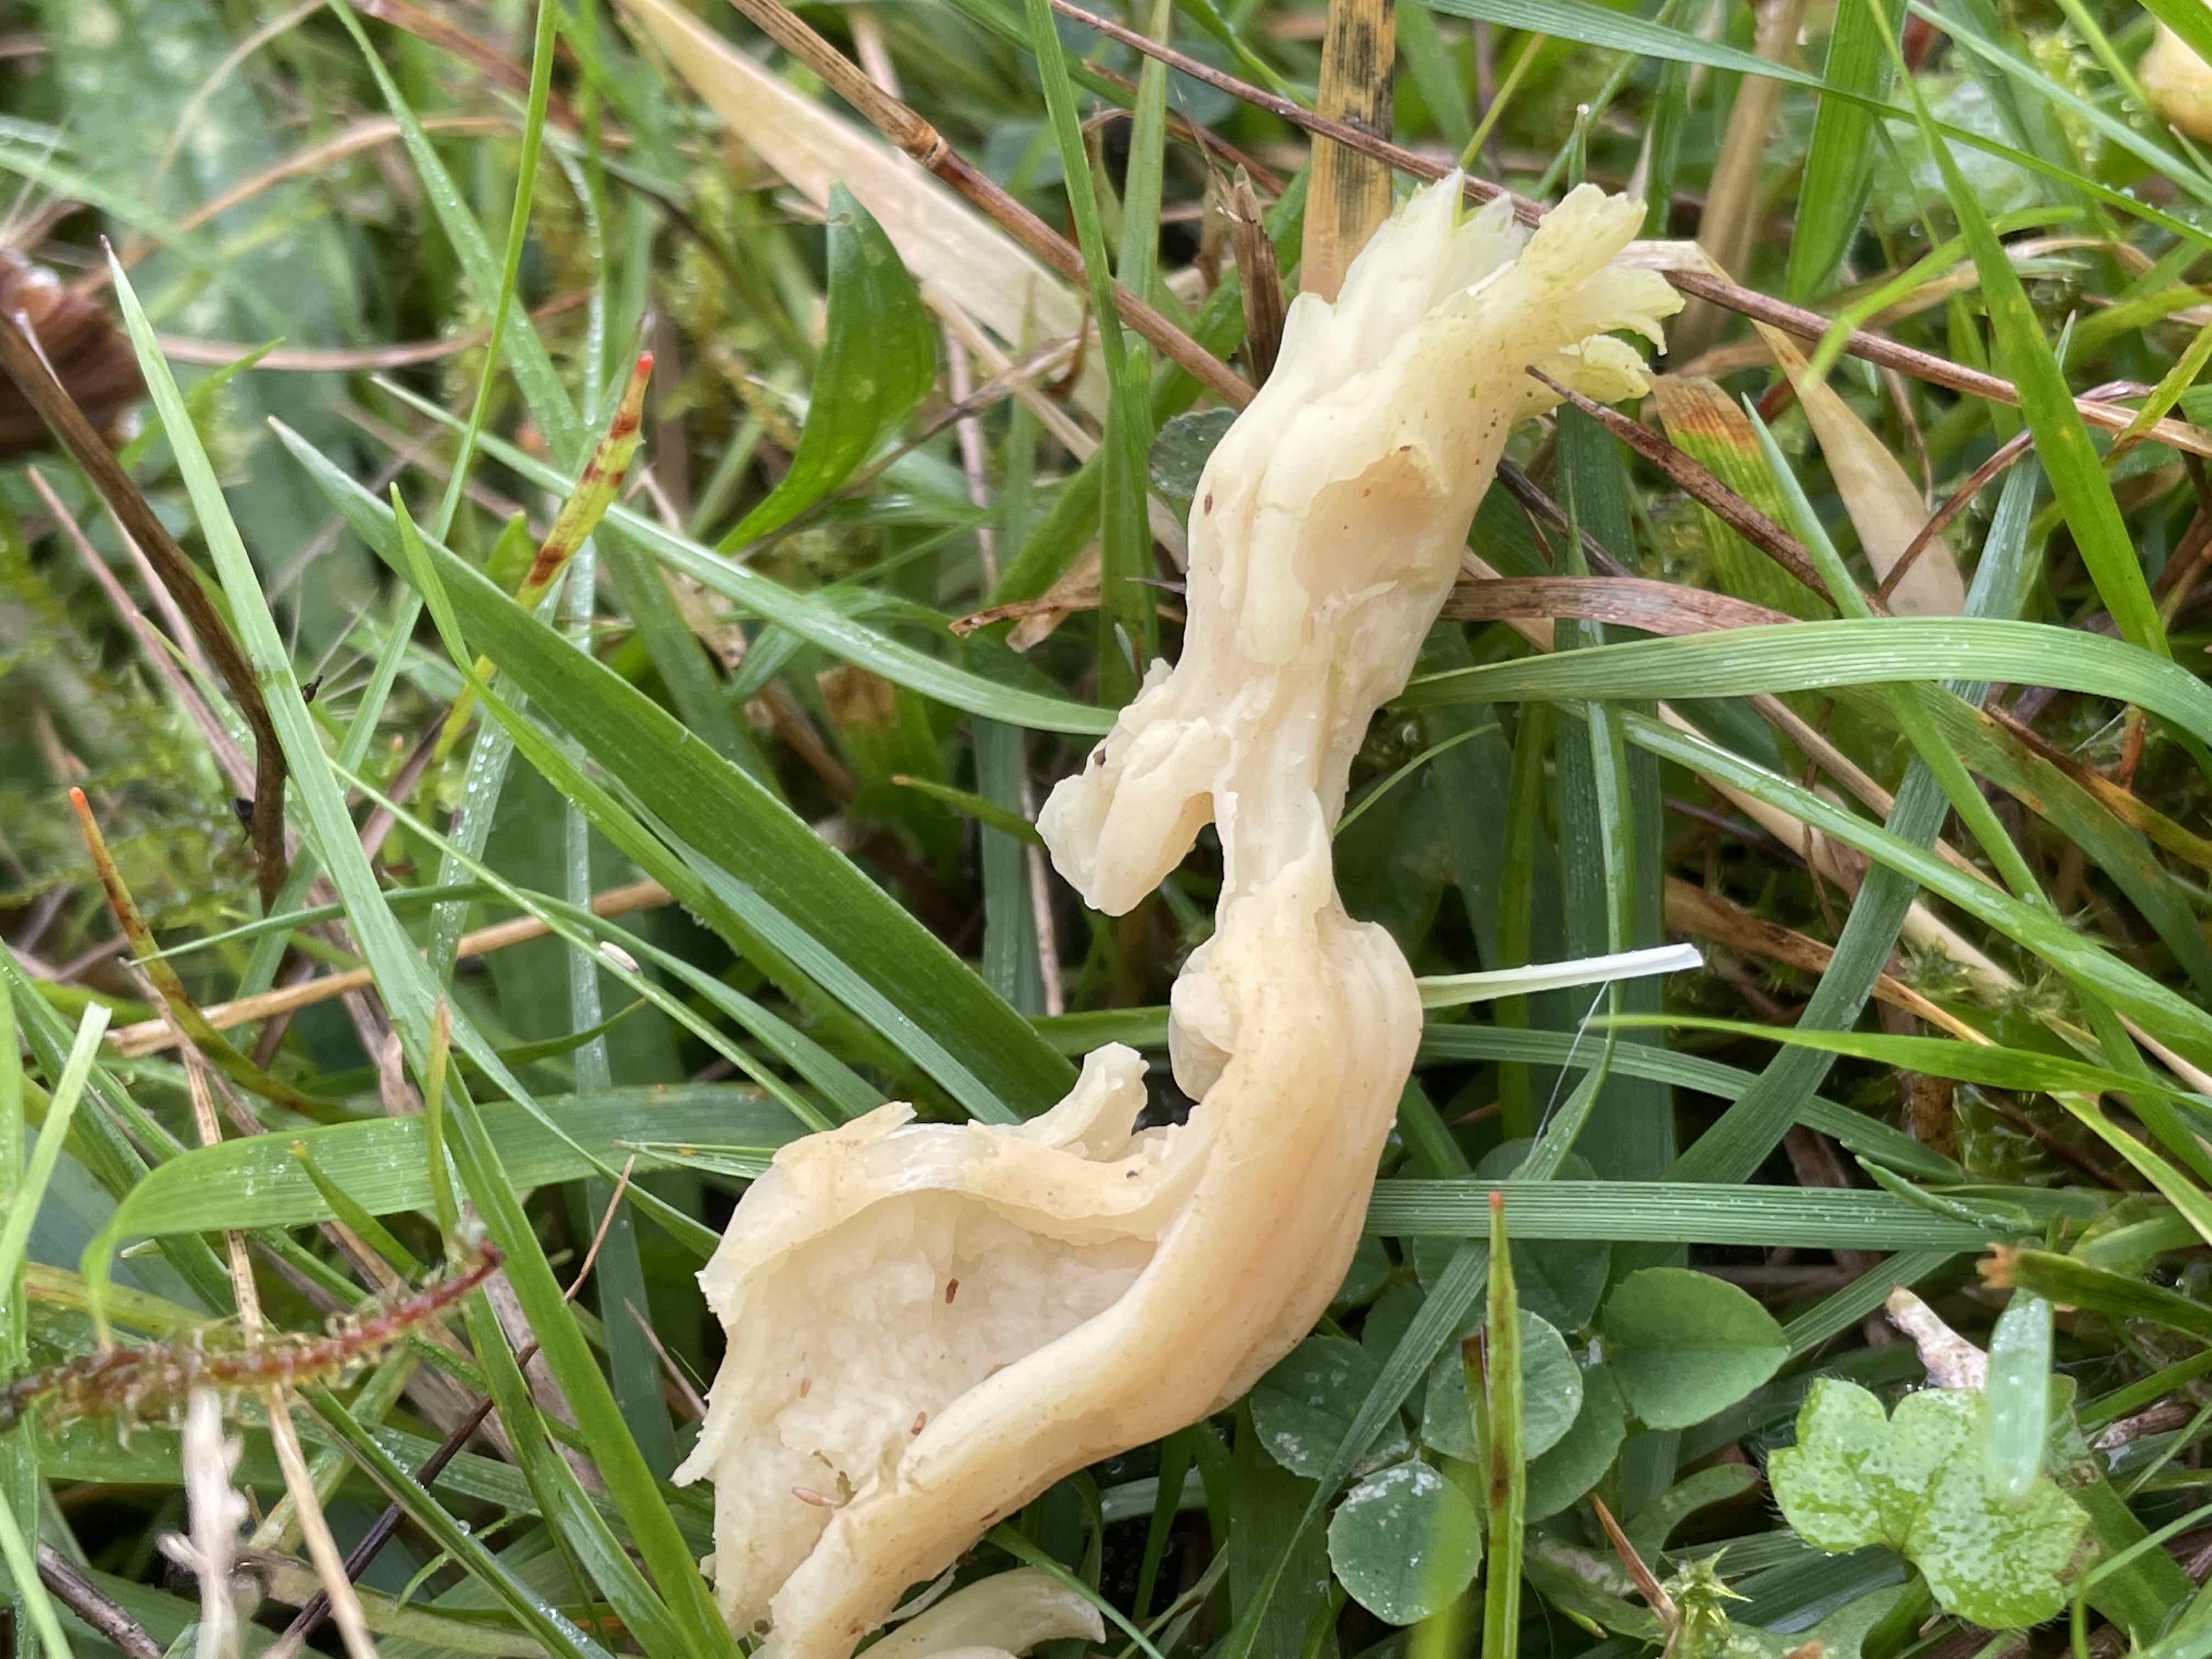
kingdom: Fungi
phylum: Basidiomycota
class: Agaricomycetes
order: Agaricales
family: Clavariaceae
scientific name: Clavariaceae
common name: køllesvampfamilien
